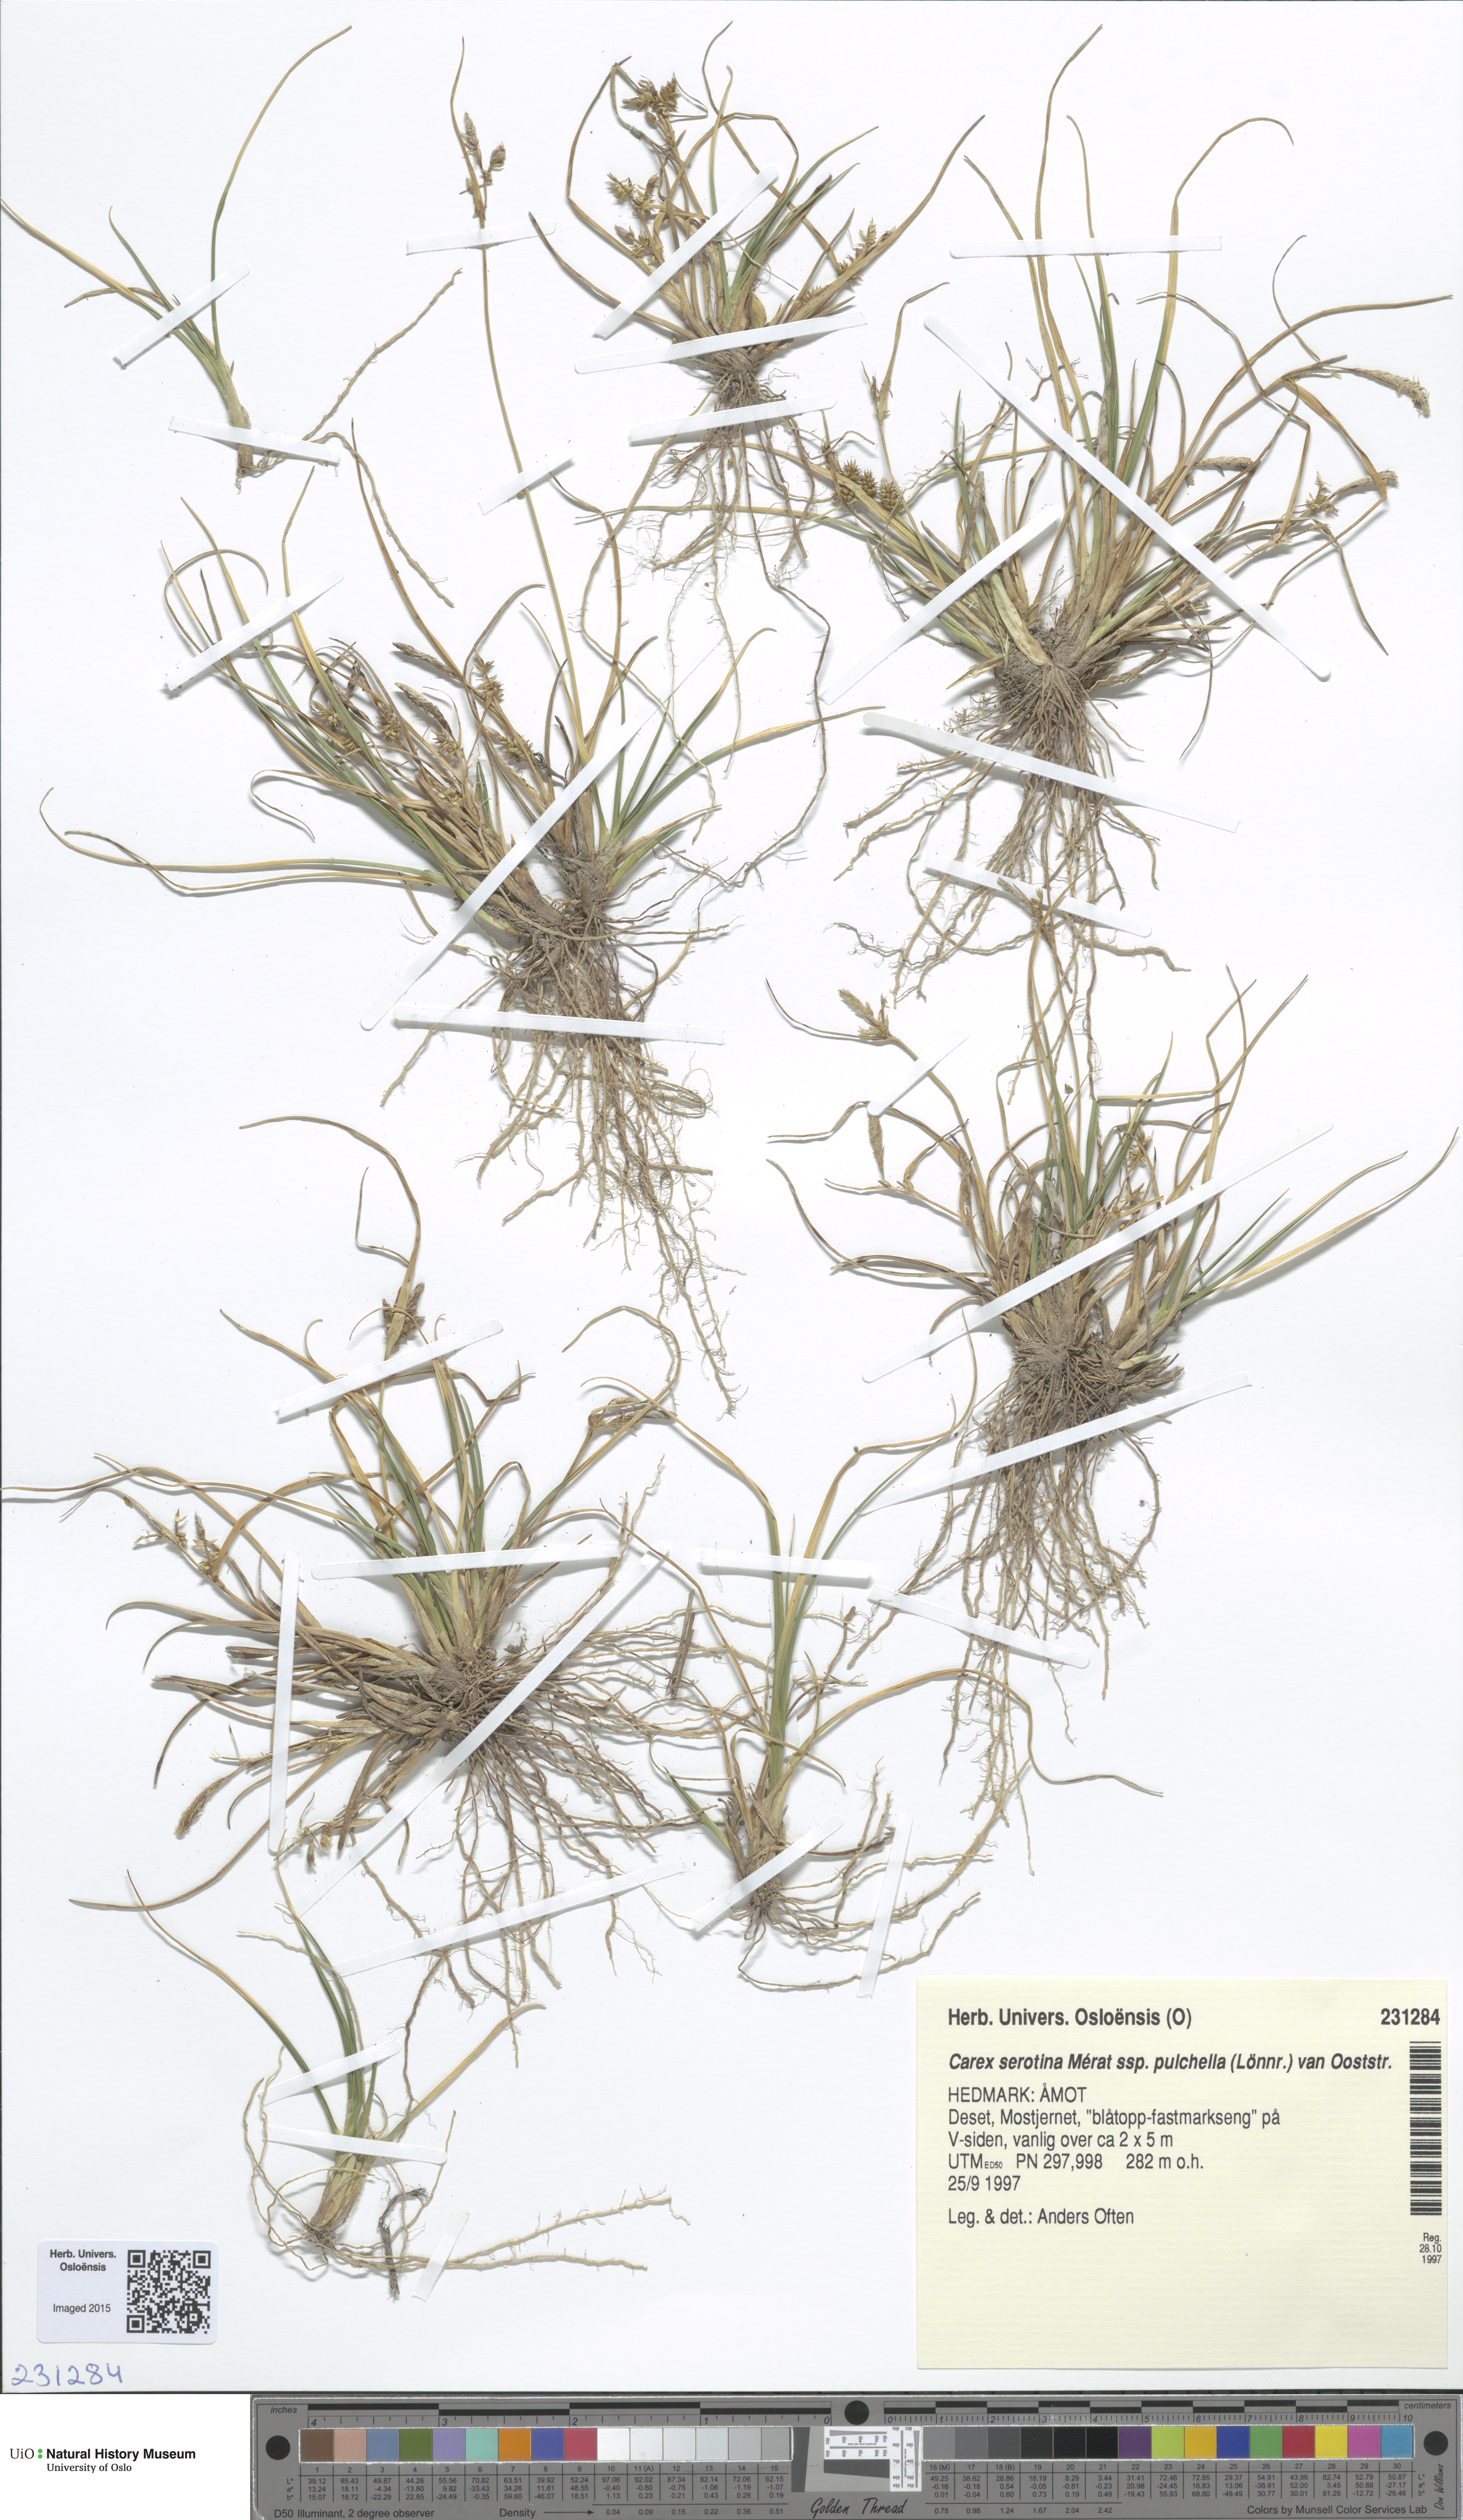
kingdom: Plantae
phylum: Tracheophyta
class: Liliopsida
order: Poales
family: Cyperaceae
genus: Carex
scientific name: Carex oederi
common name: Common & small-fruited yellow-sedge
